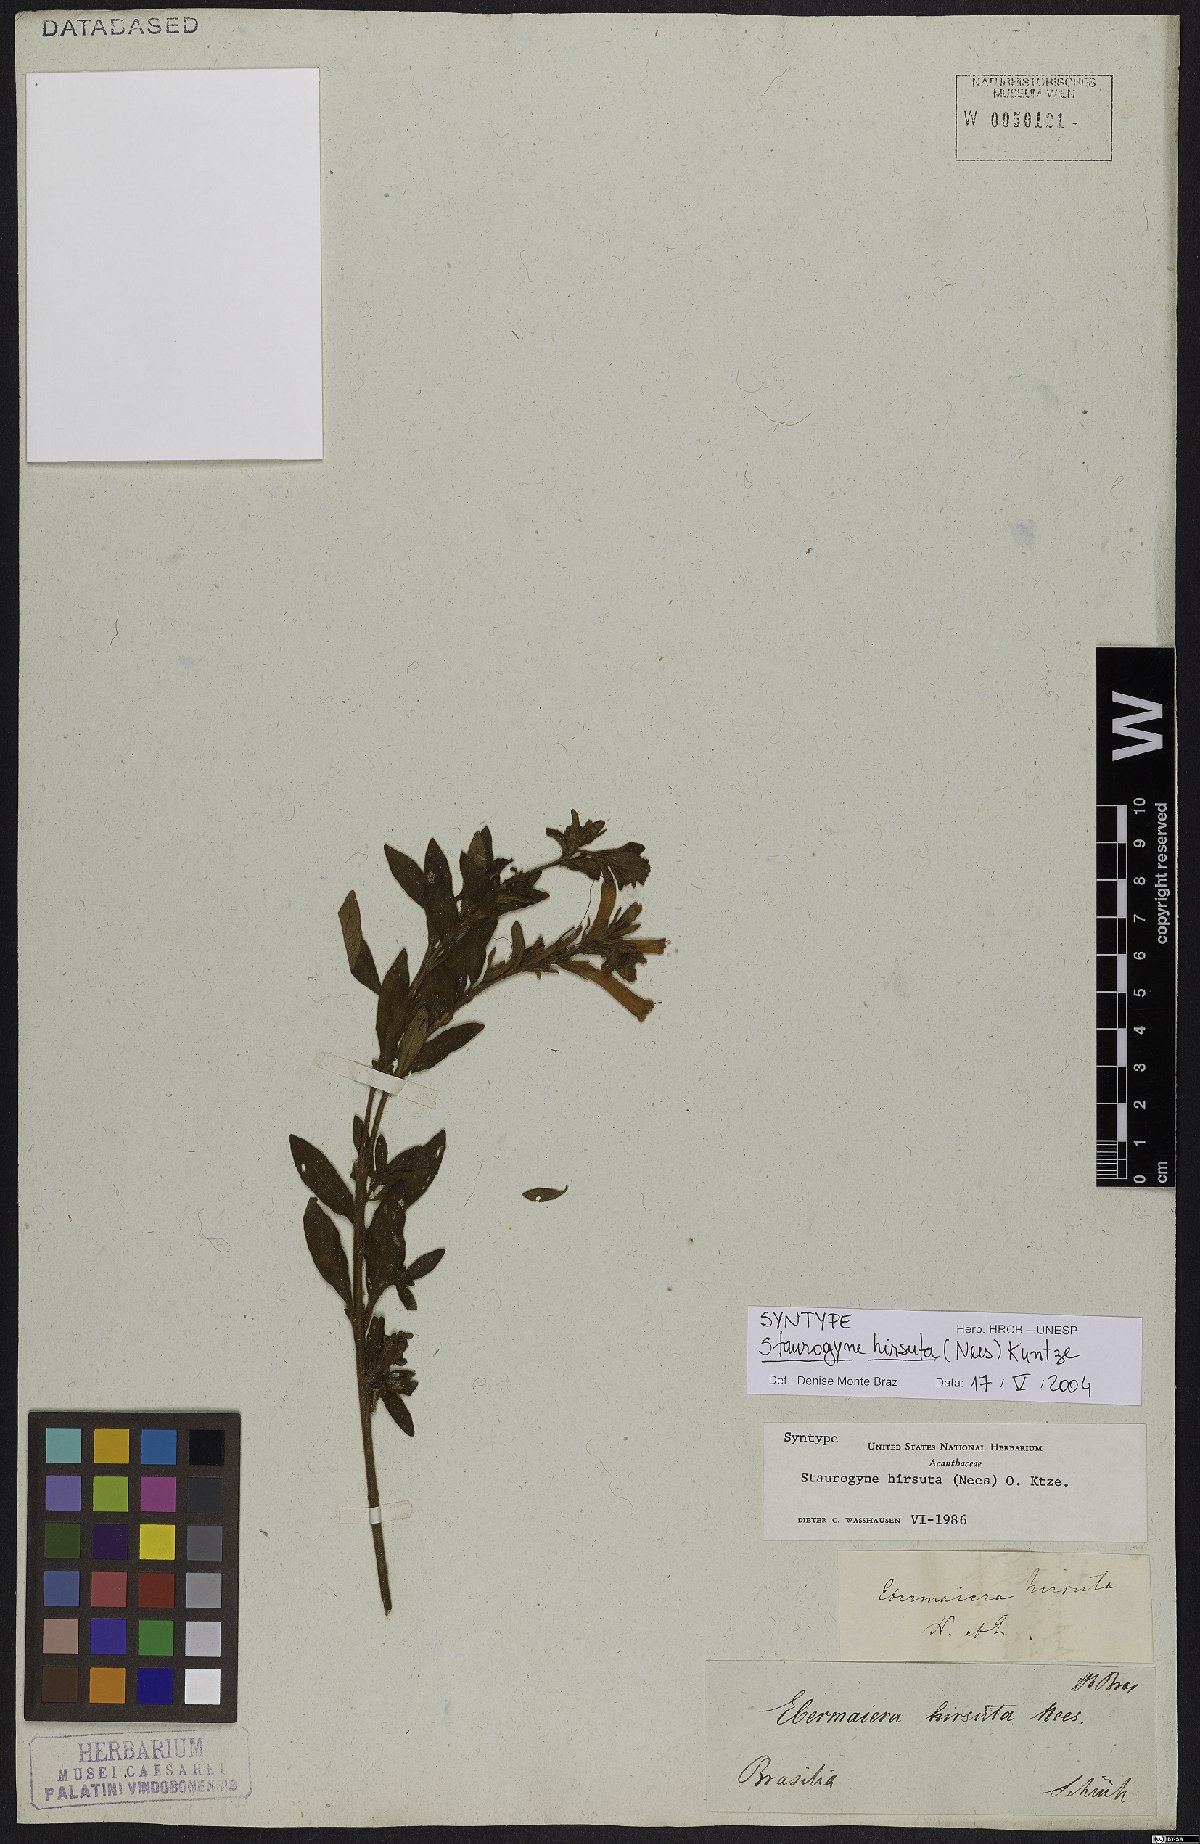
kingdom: Plantae
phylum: Tracheophyta
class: Magnoliopsida
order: Lamiales
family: Acanthaceae
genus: Staurogyne
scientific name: Staurogyne hirsuta
